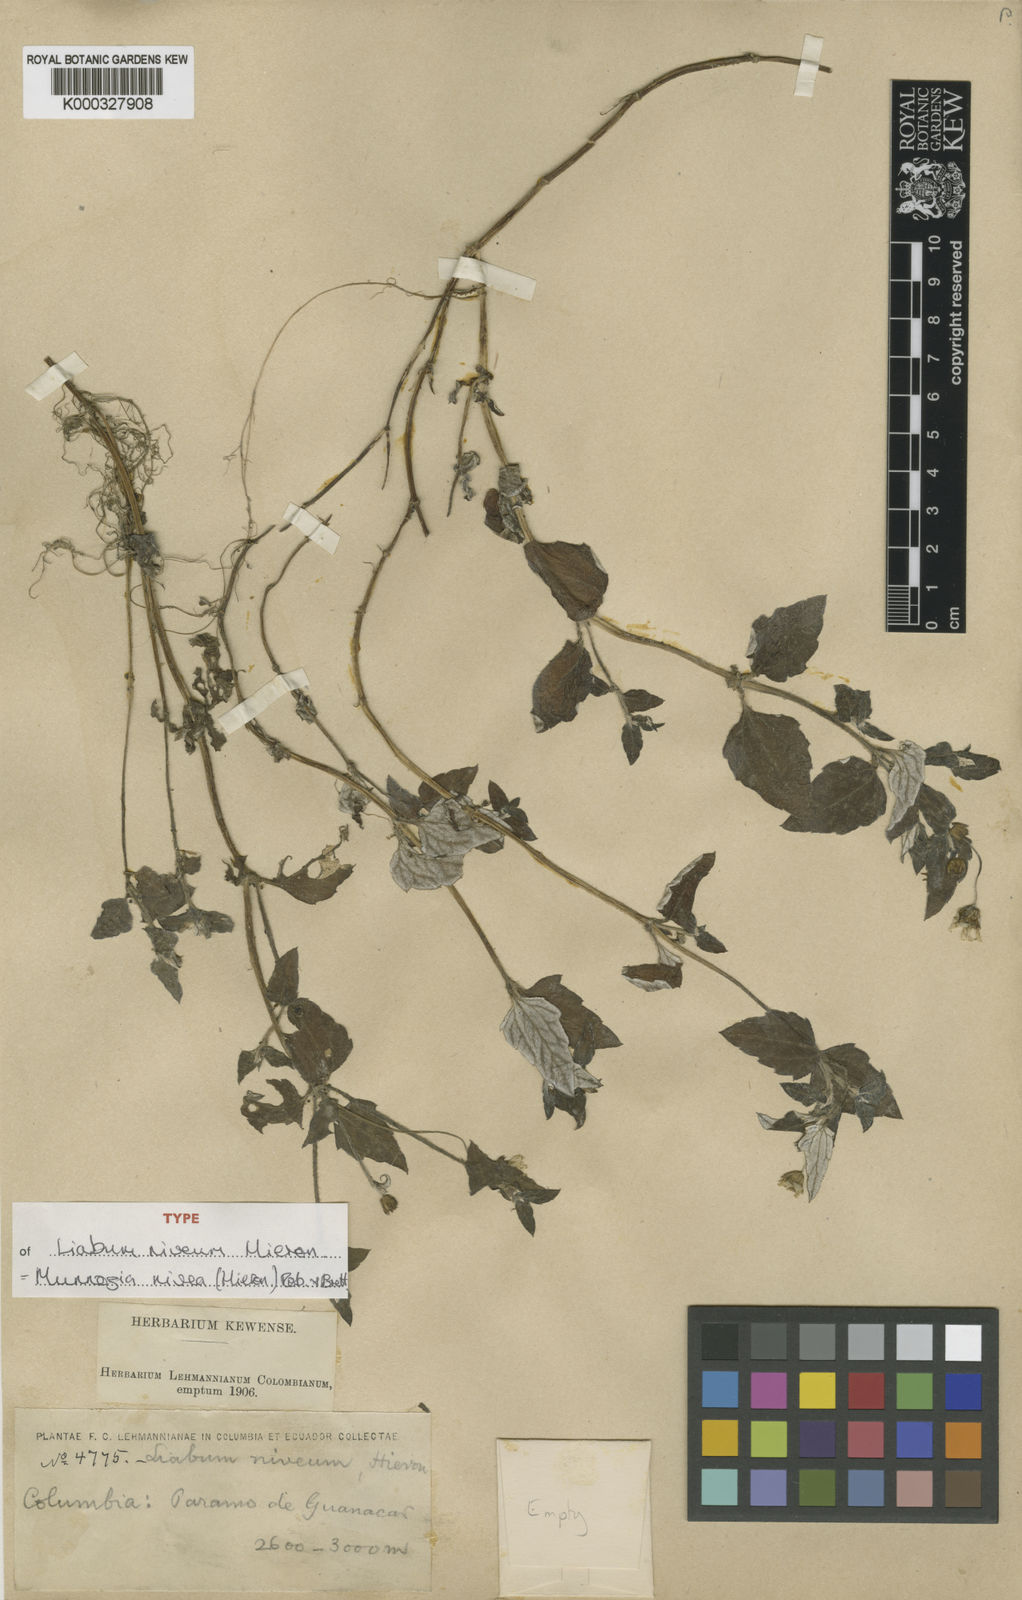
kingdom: Plantae
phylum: Tracheophyta
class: Magnoliopsida
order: Asterales
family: Asteraceae
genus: Munnozia
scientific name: Munnozia nivea
